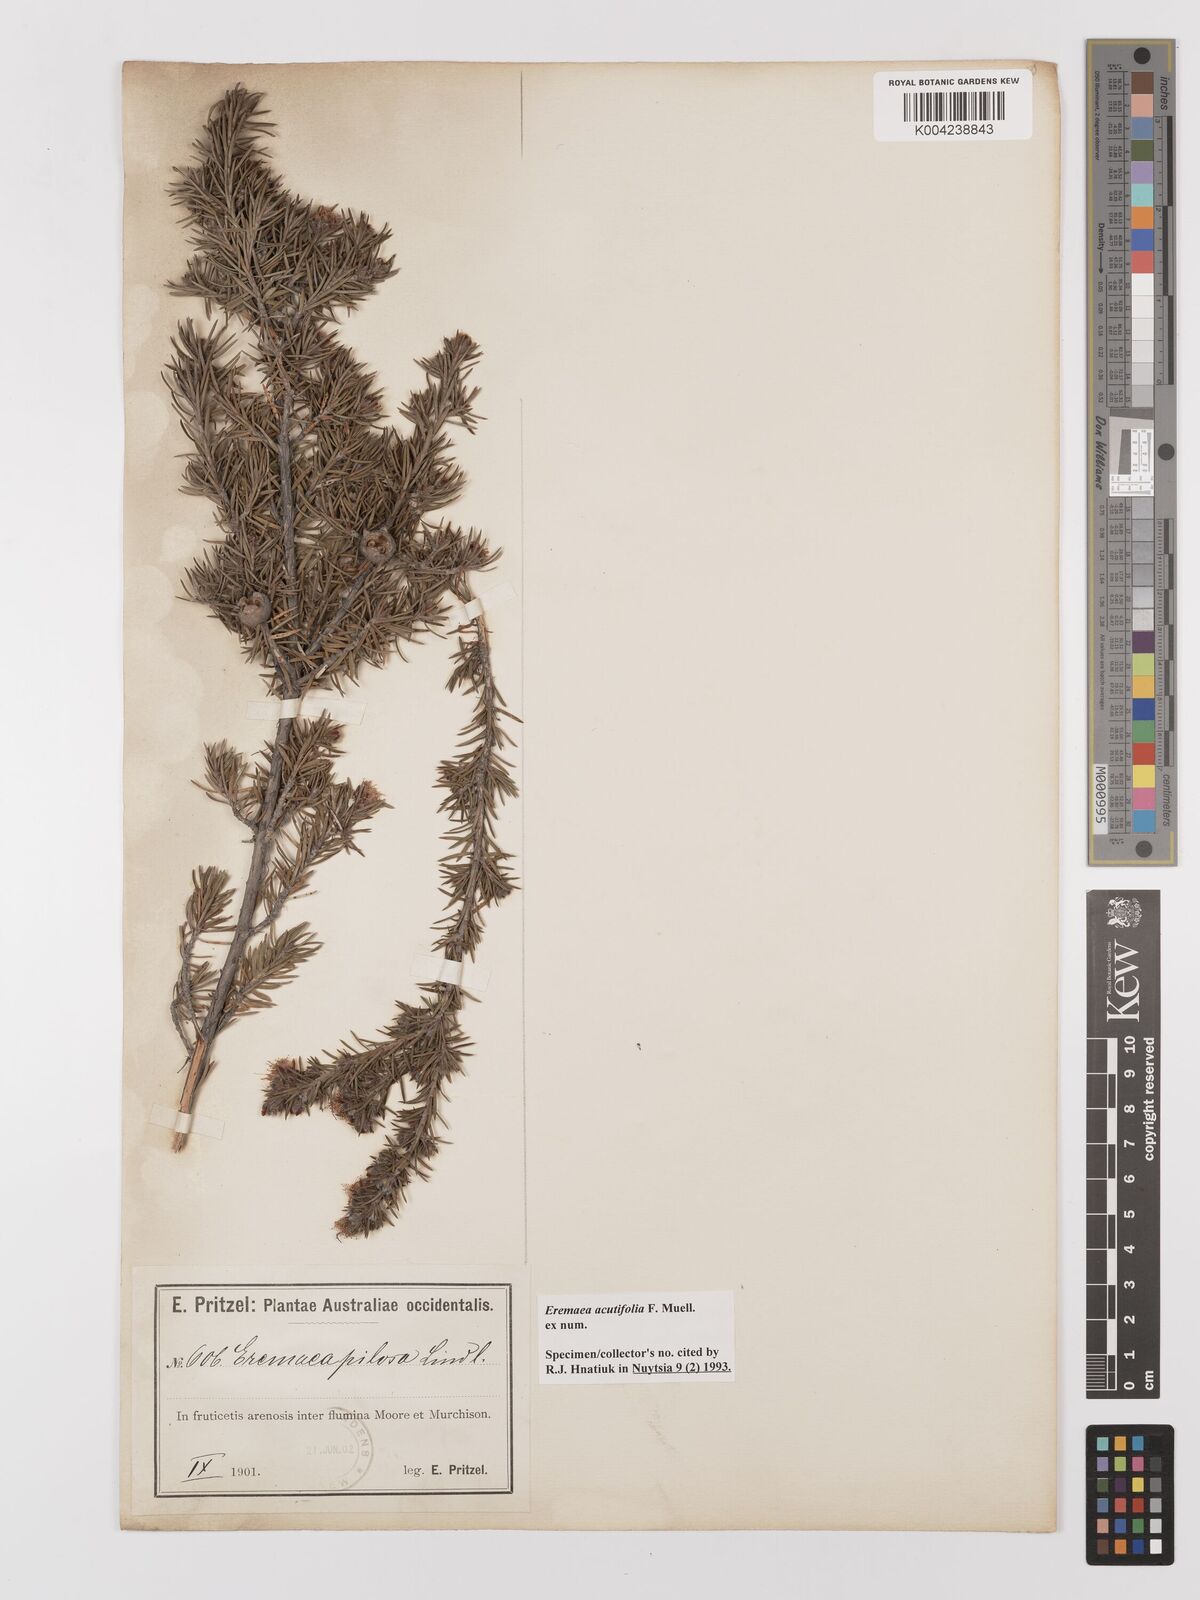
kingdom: Plantae
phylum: Tracheophyta
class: Magnoliopsida
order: Myrtales
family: Myrtaceae
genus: Melaleuca
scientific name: Melaleuca acrifolia
